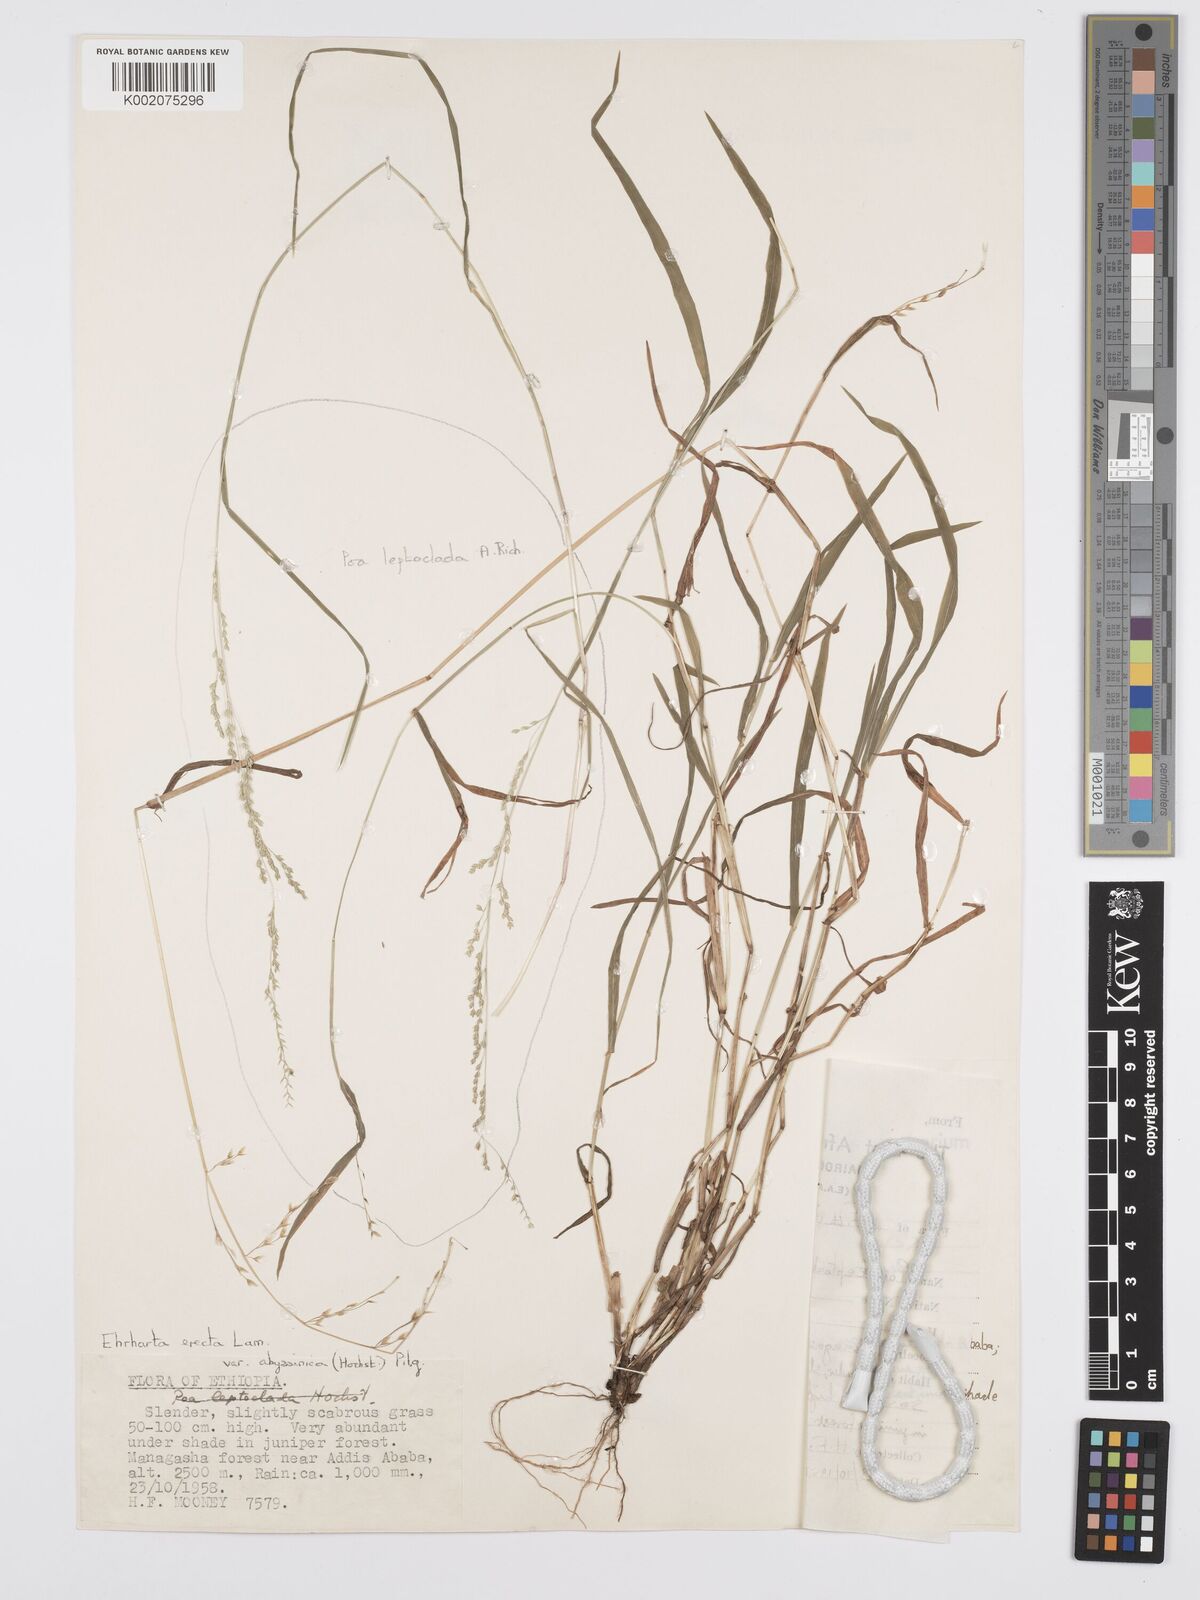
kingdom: Plantae
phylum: Tracheophyta
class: Liliopsida
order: Poales
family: Poaceae
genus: Poa
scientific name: Poa leptoclada
